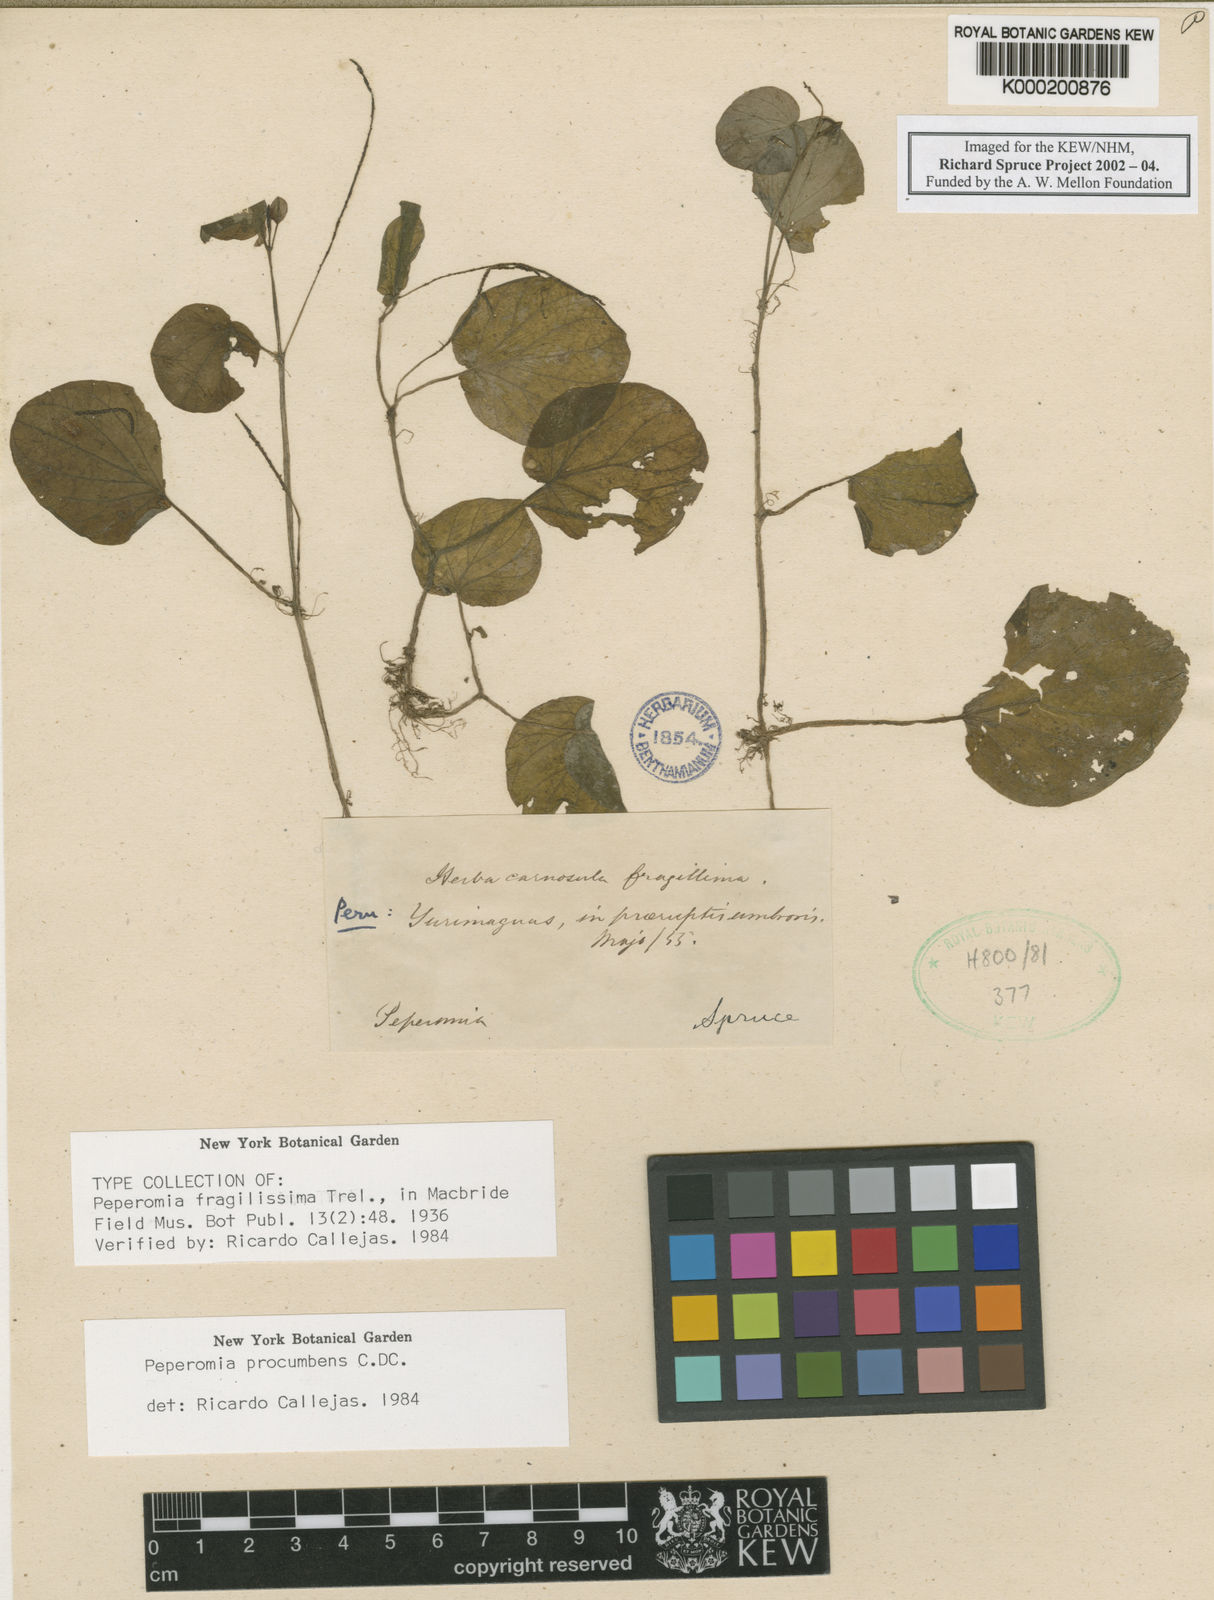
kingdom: Plantae
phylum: Tracheophyta
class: Magnoliopsida
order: Piperales
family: Piperaceae
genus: Peperomia
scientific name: Peperomia procumbens
